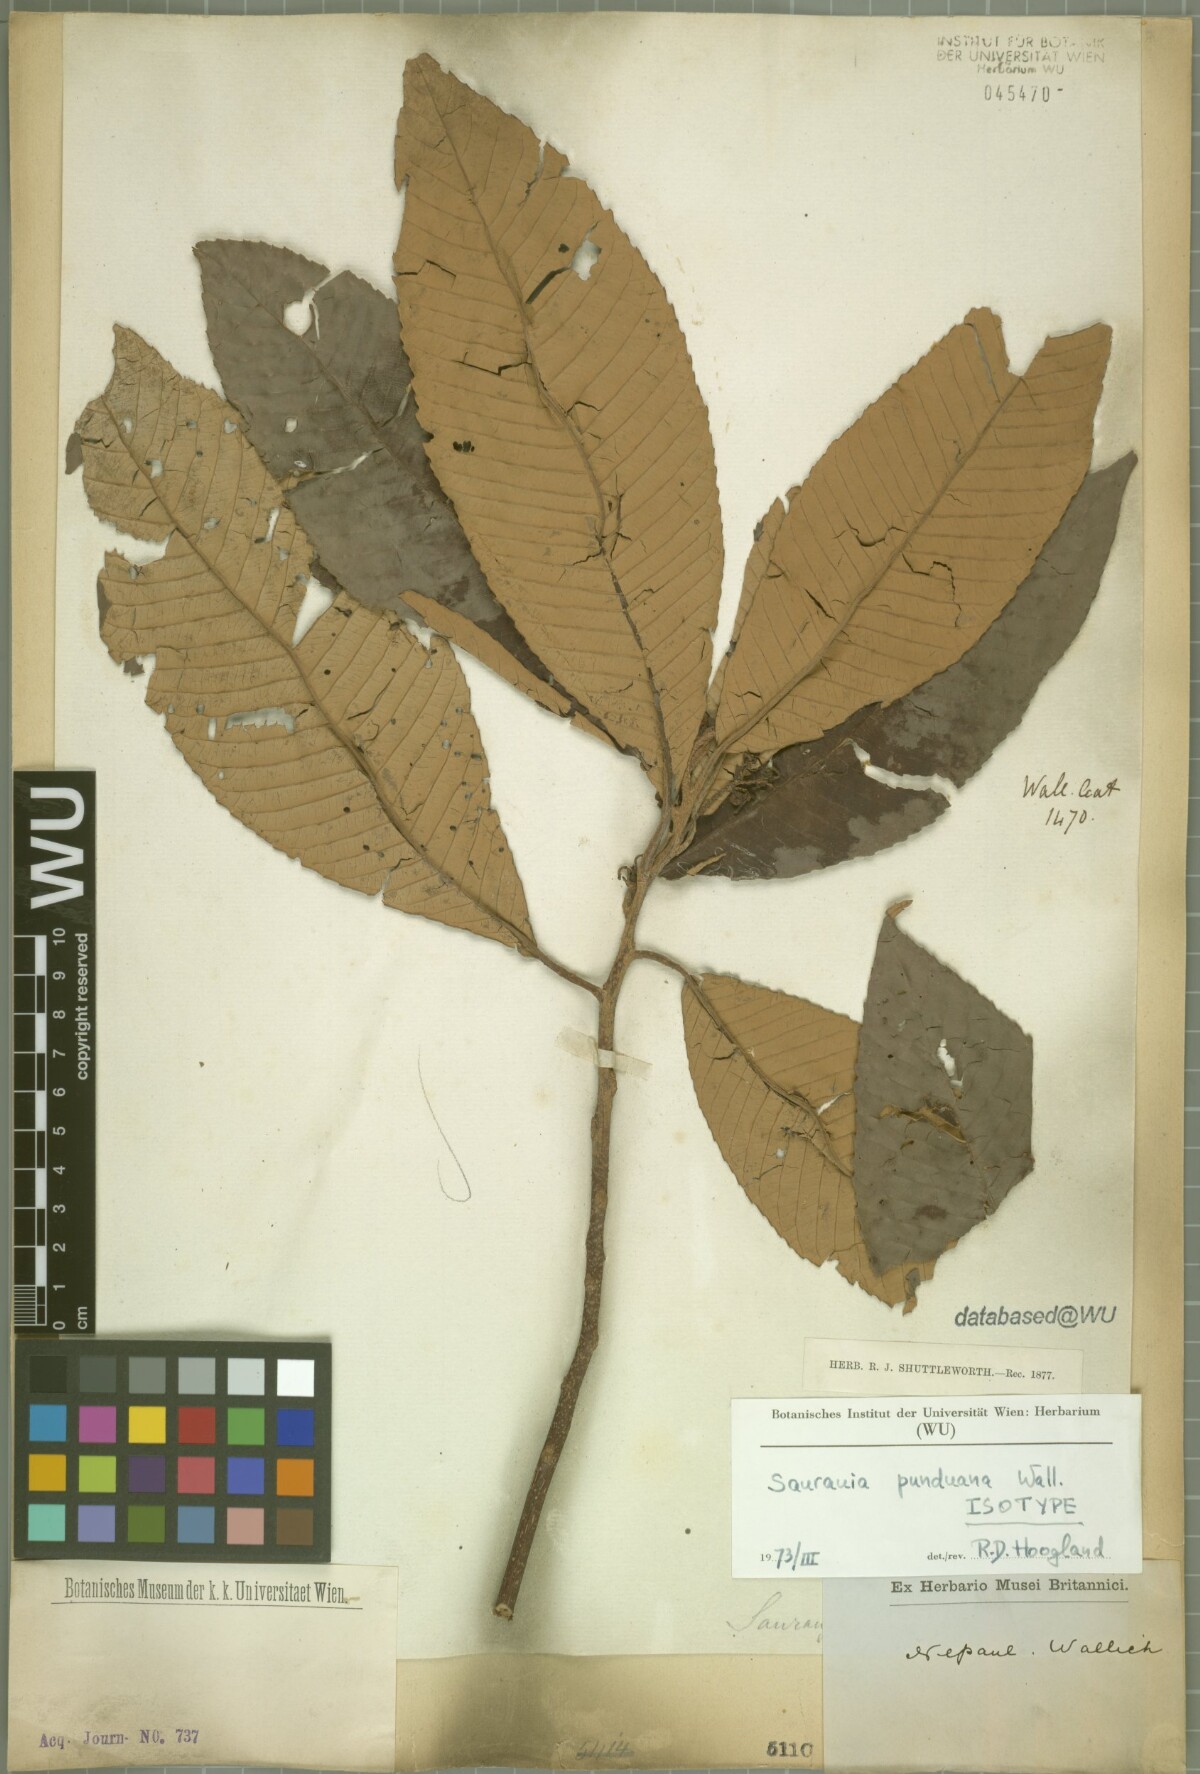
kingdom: Plantae
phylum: Tracheophyta
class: Magnoliopsida
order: Ericales
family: Actinidiaceae
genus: Saurauia
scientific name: Saurauia punduana
